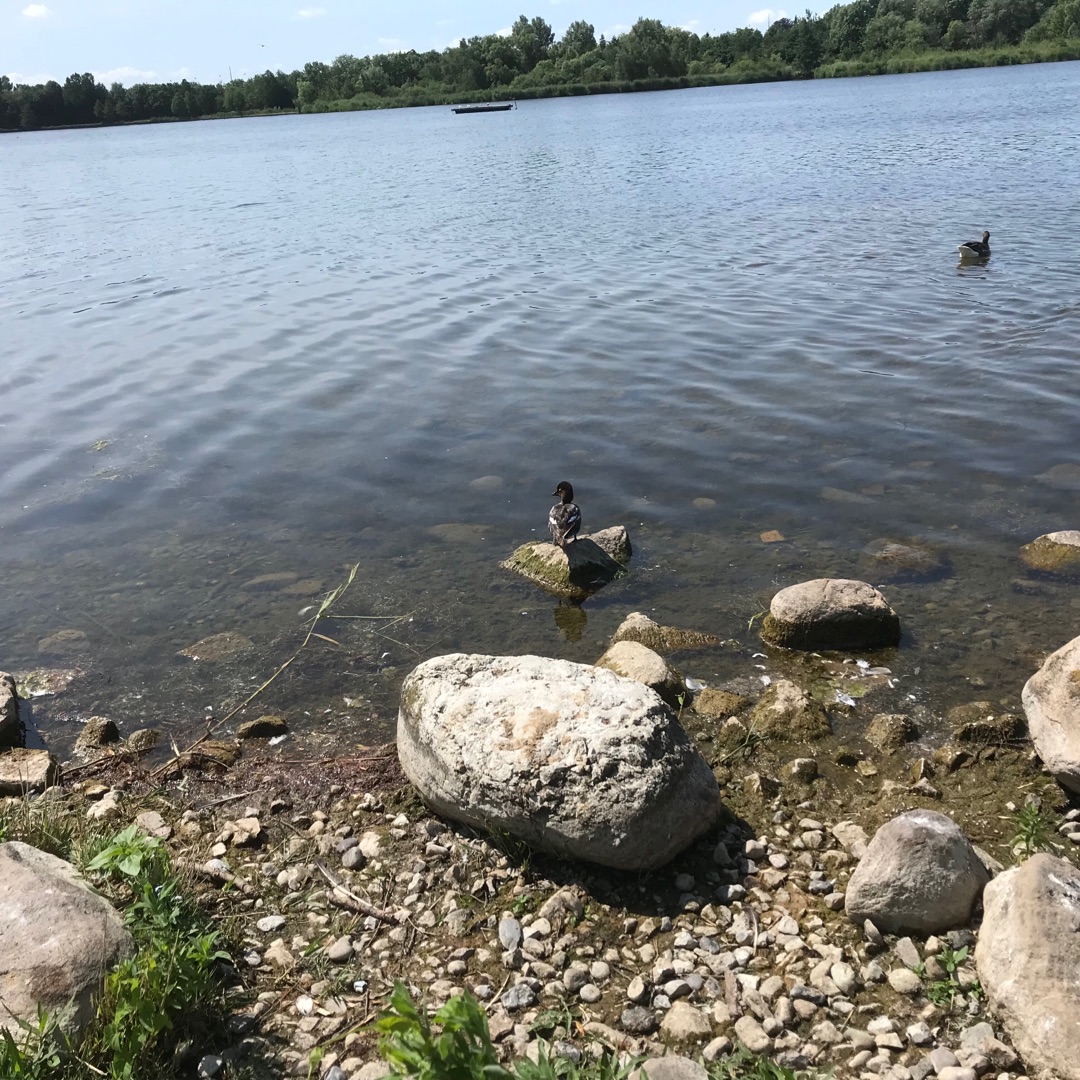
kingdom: Animalia
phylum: Chordata
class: Aves
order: Anseriformes
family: Anatidae
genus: Bucephala
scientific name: Bucephala clangula
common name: Hvinand
